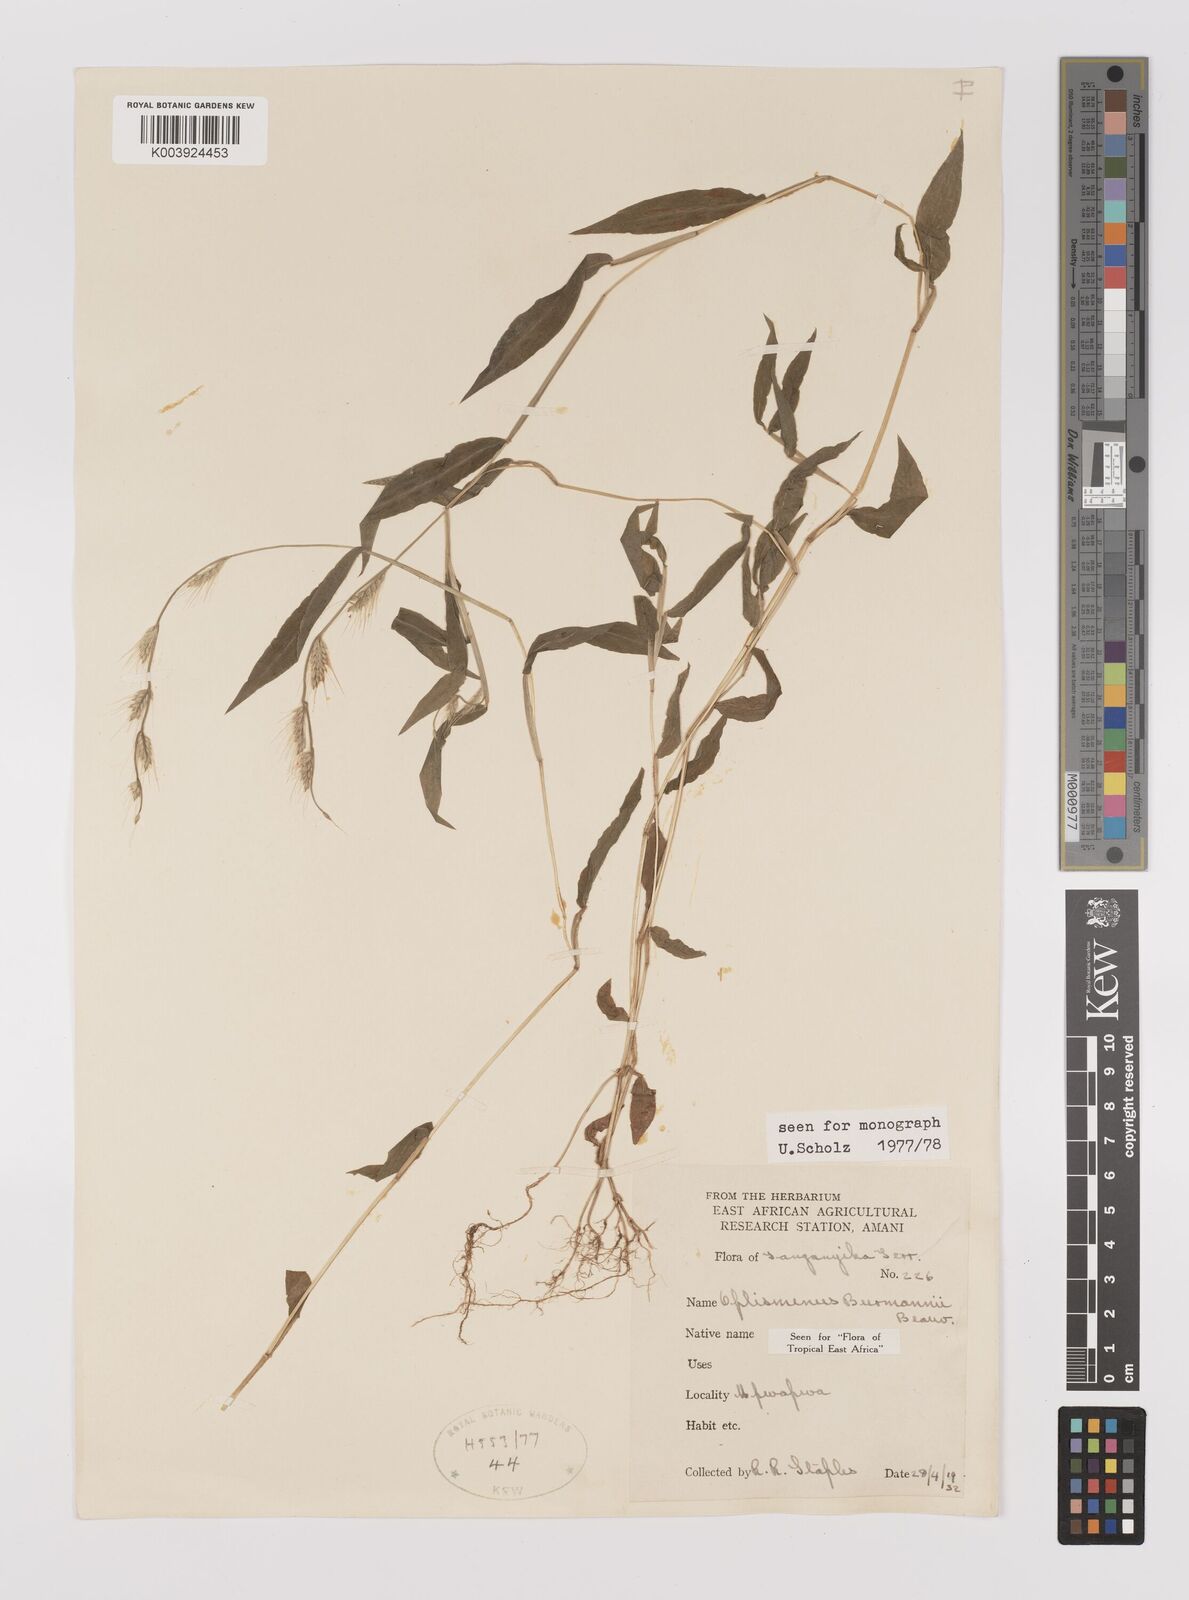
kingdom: Plantae
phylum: Tracheophyta
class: Liliopsida
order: Poales
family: Poaceae
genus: Oplismenus
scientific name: Oplismenus burmanni
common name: Burmann's basketgrass
